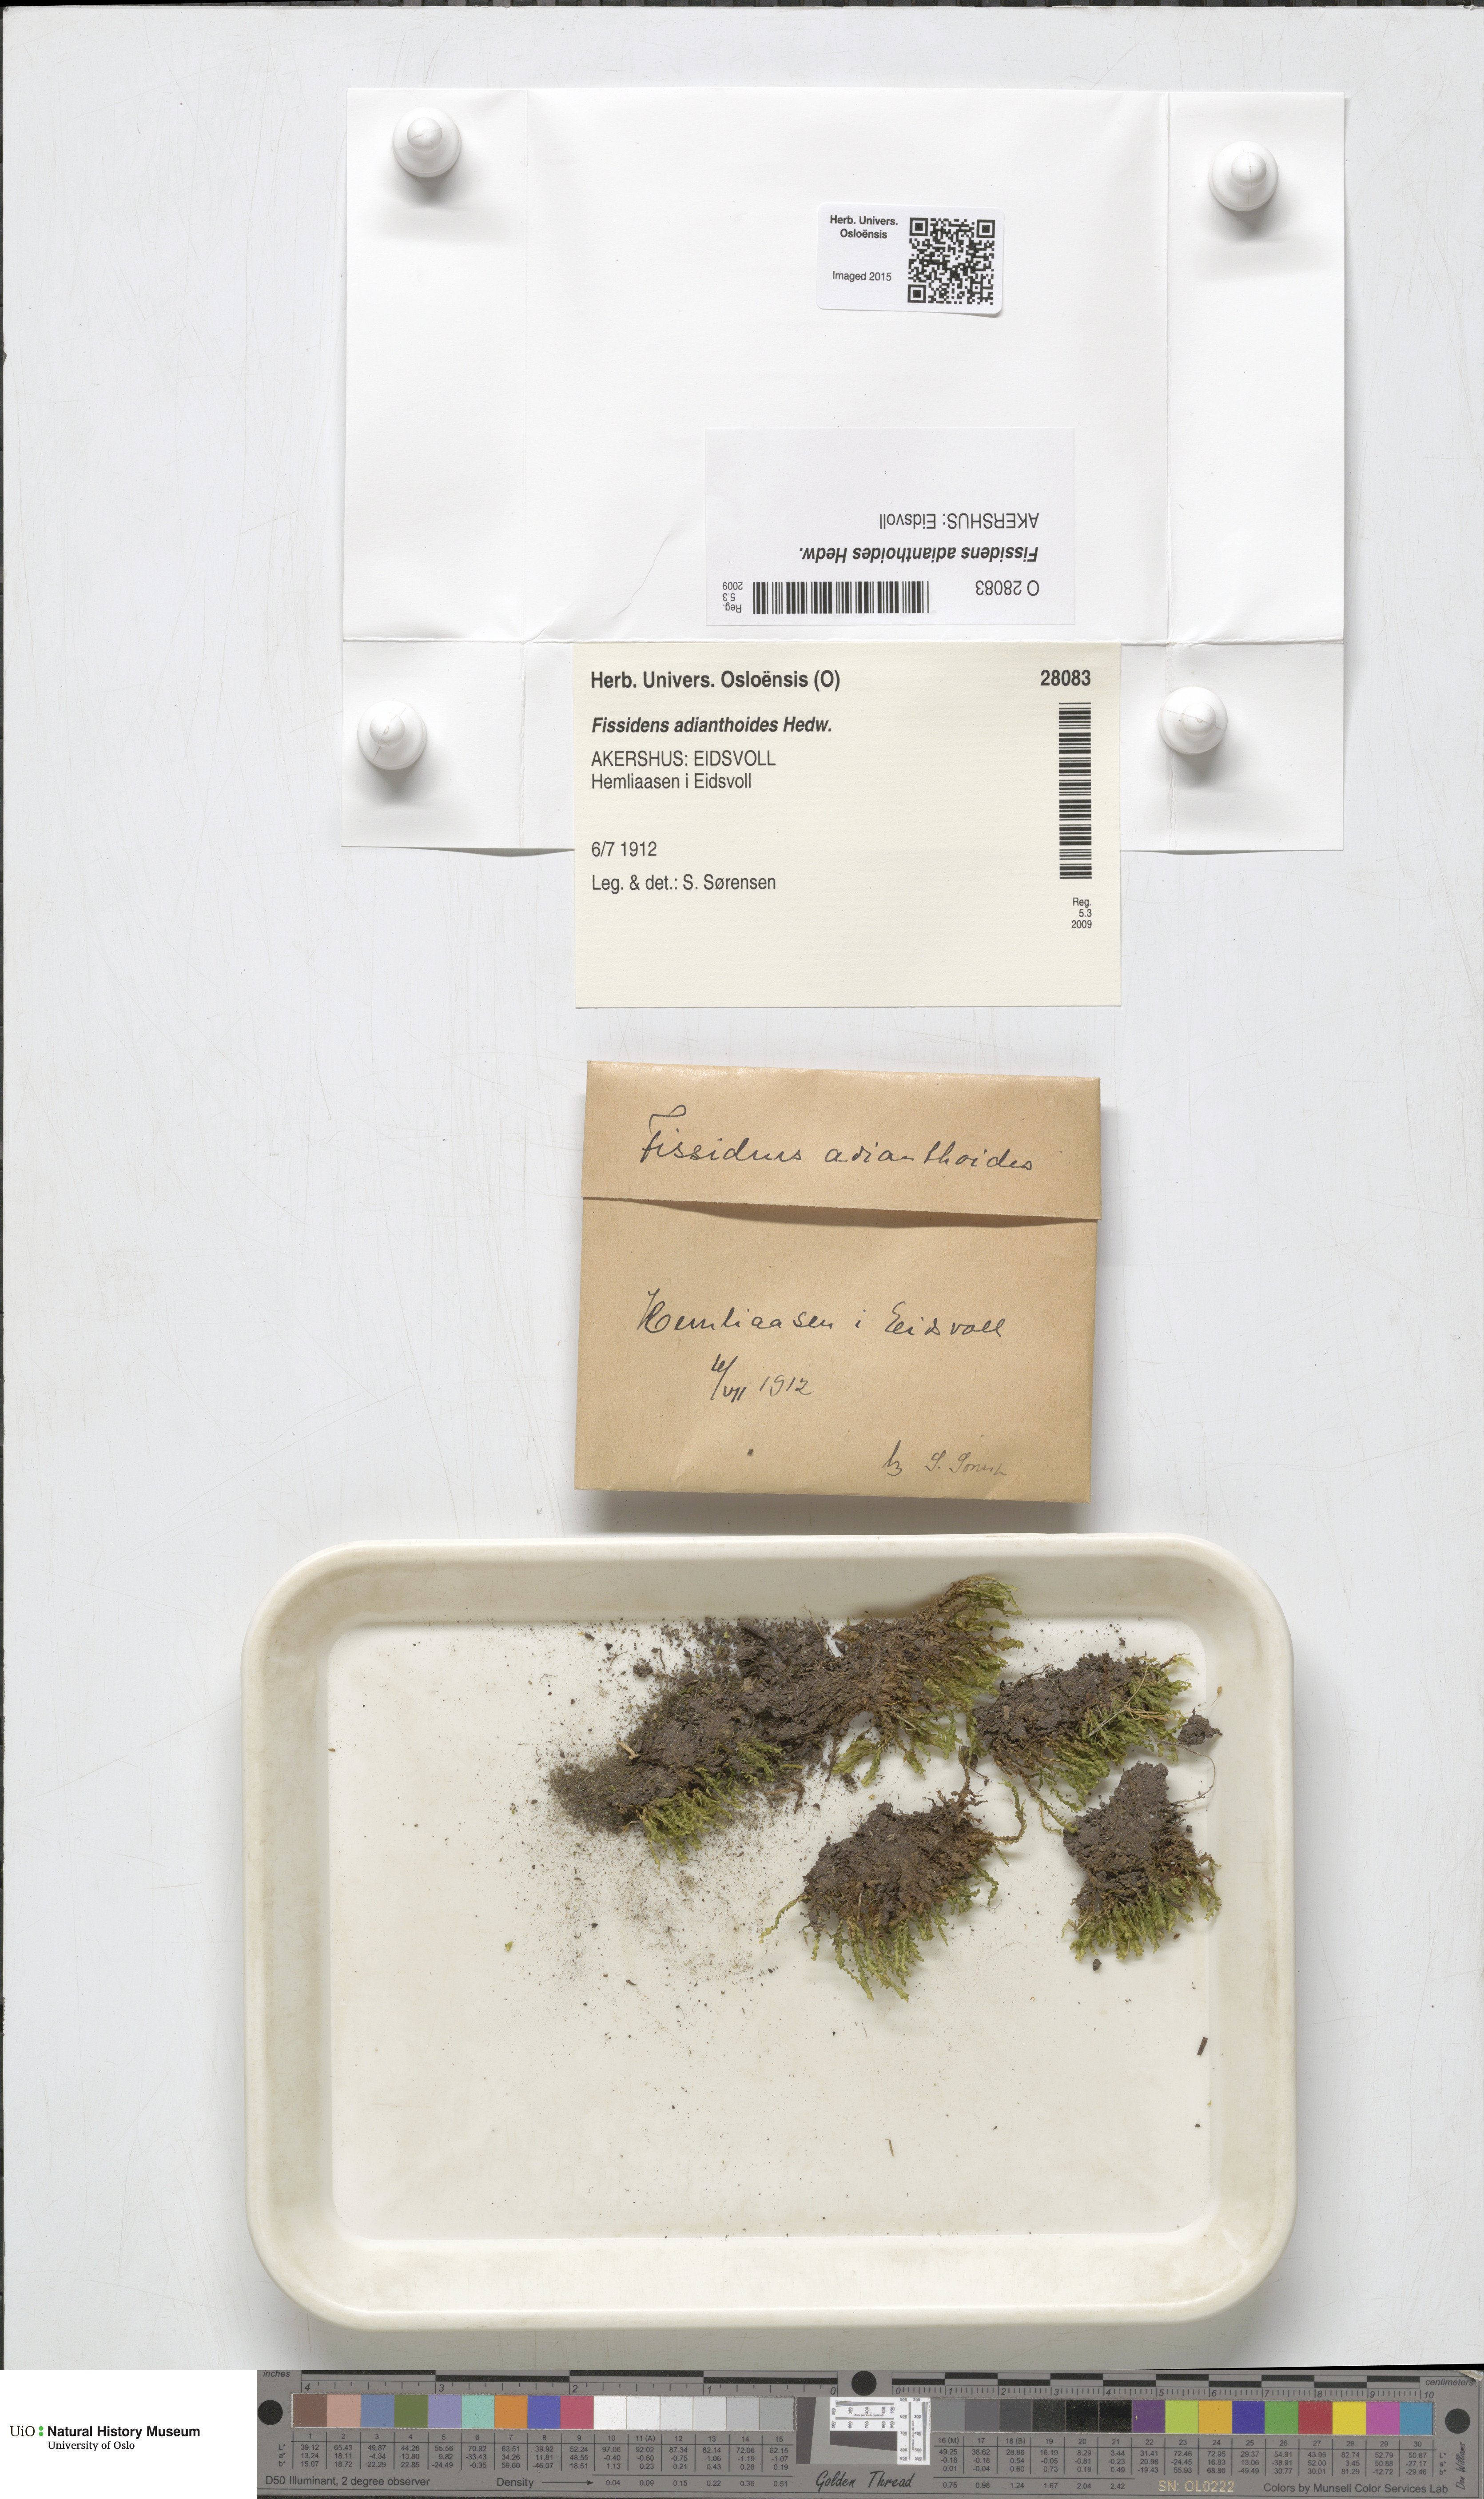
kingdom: Plantae
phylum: Bryophyta
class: Bryopsida
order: Dicranales
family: Fissidentaceae
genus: Fissidens
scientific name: Fissidens adianthoides
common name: Maidenhair pocket moss
